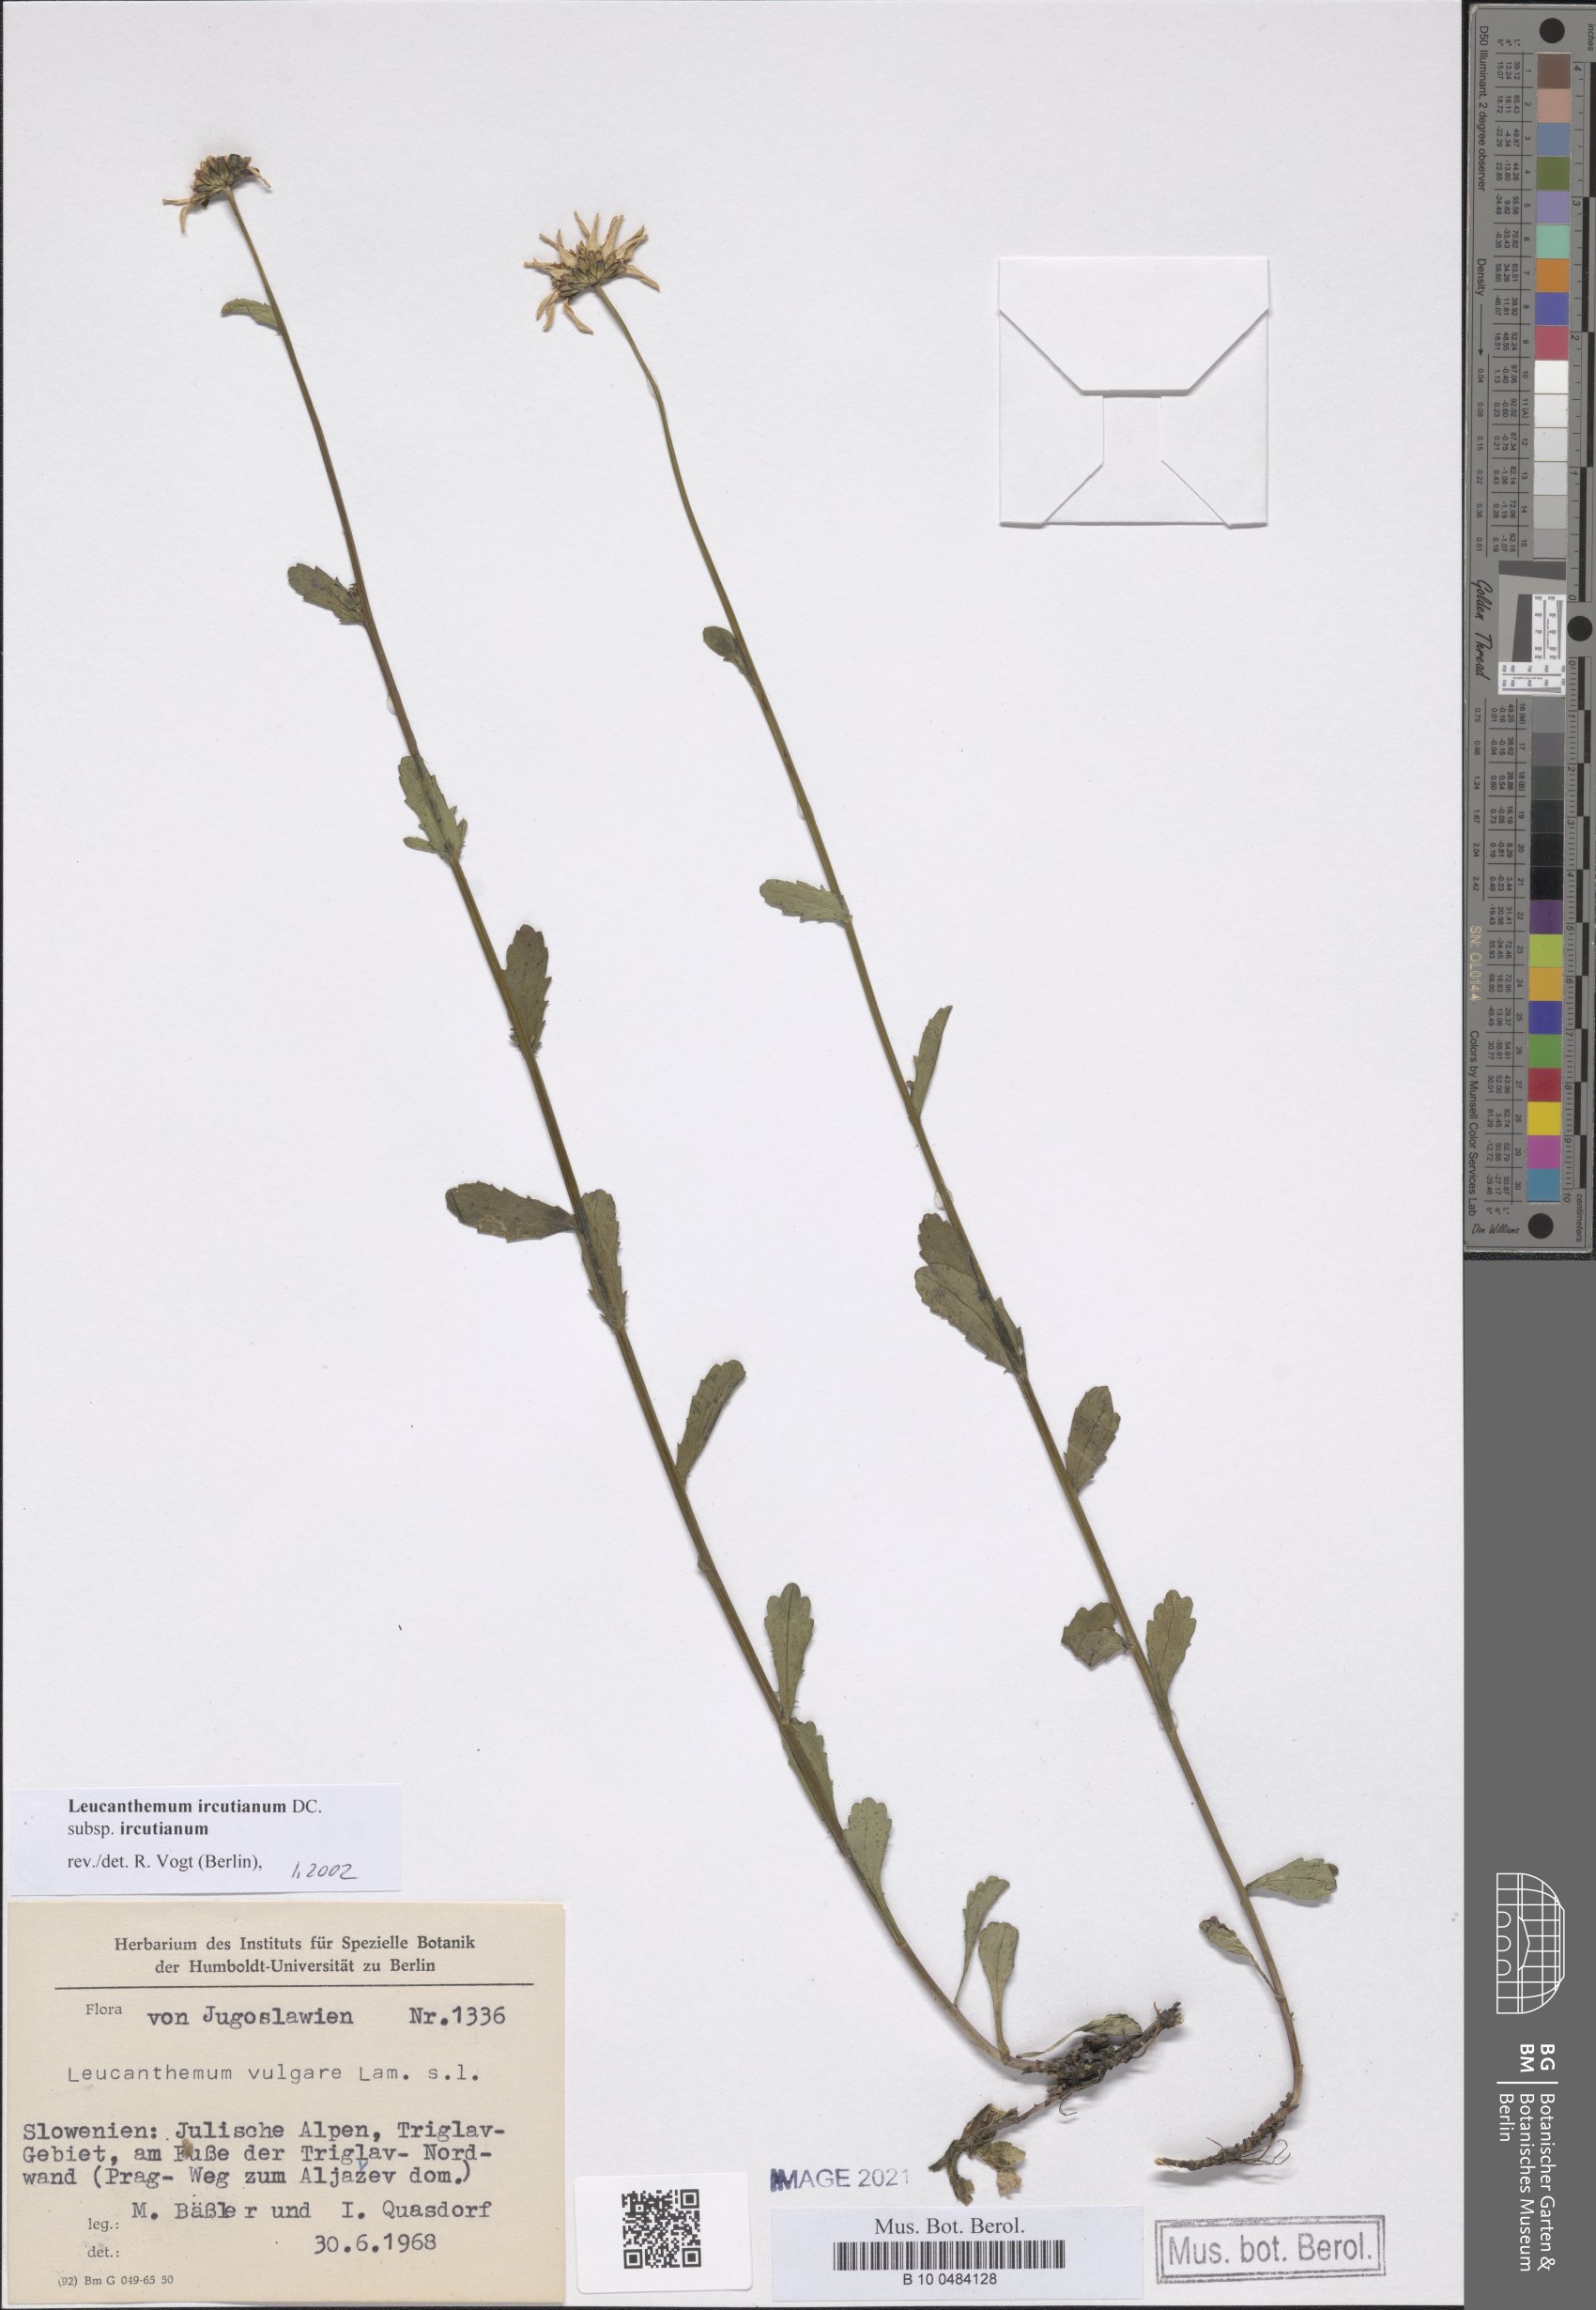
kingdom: Plantae
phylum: Tracheophyta
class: Magnoliopsida
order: Asterales
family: Asteraceae
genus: Leucanthemum
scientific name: Leucanthemum ircutianum
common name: Daisy
